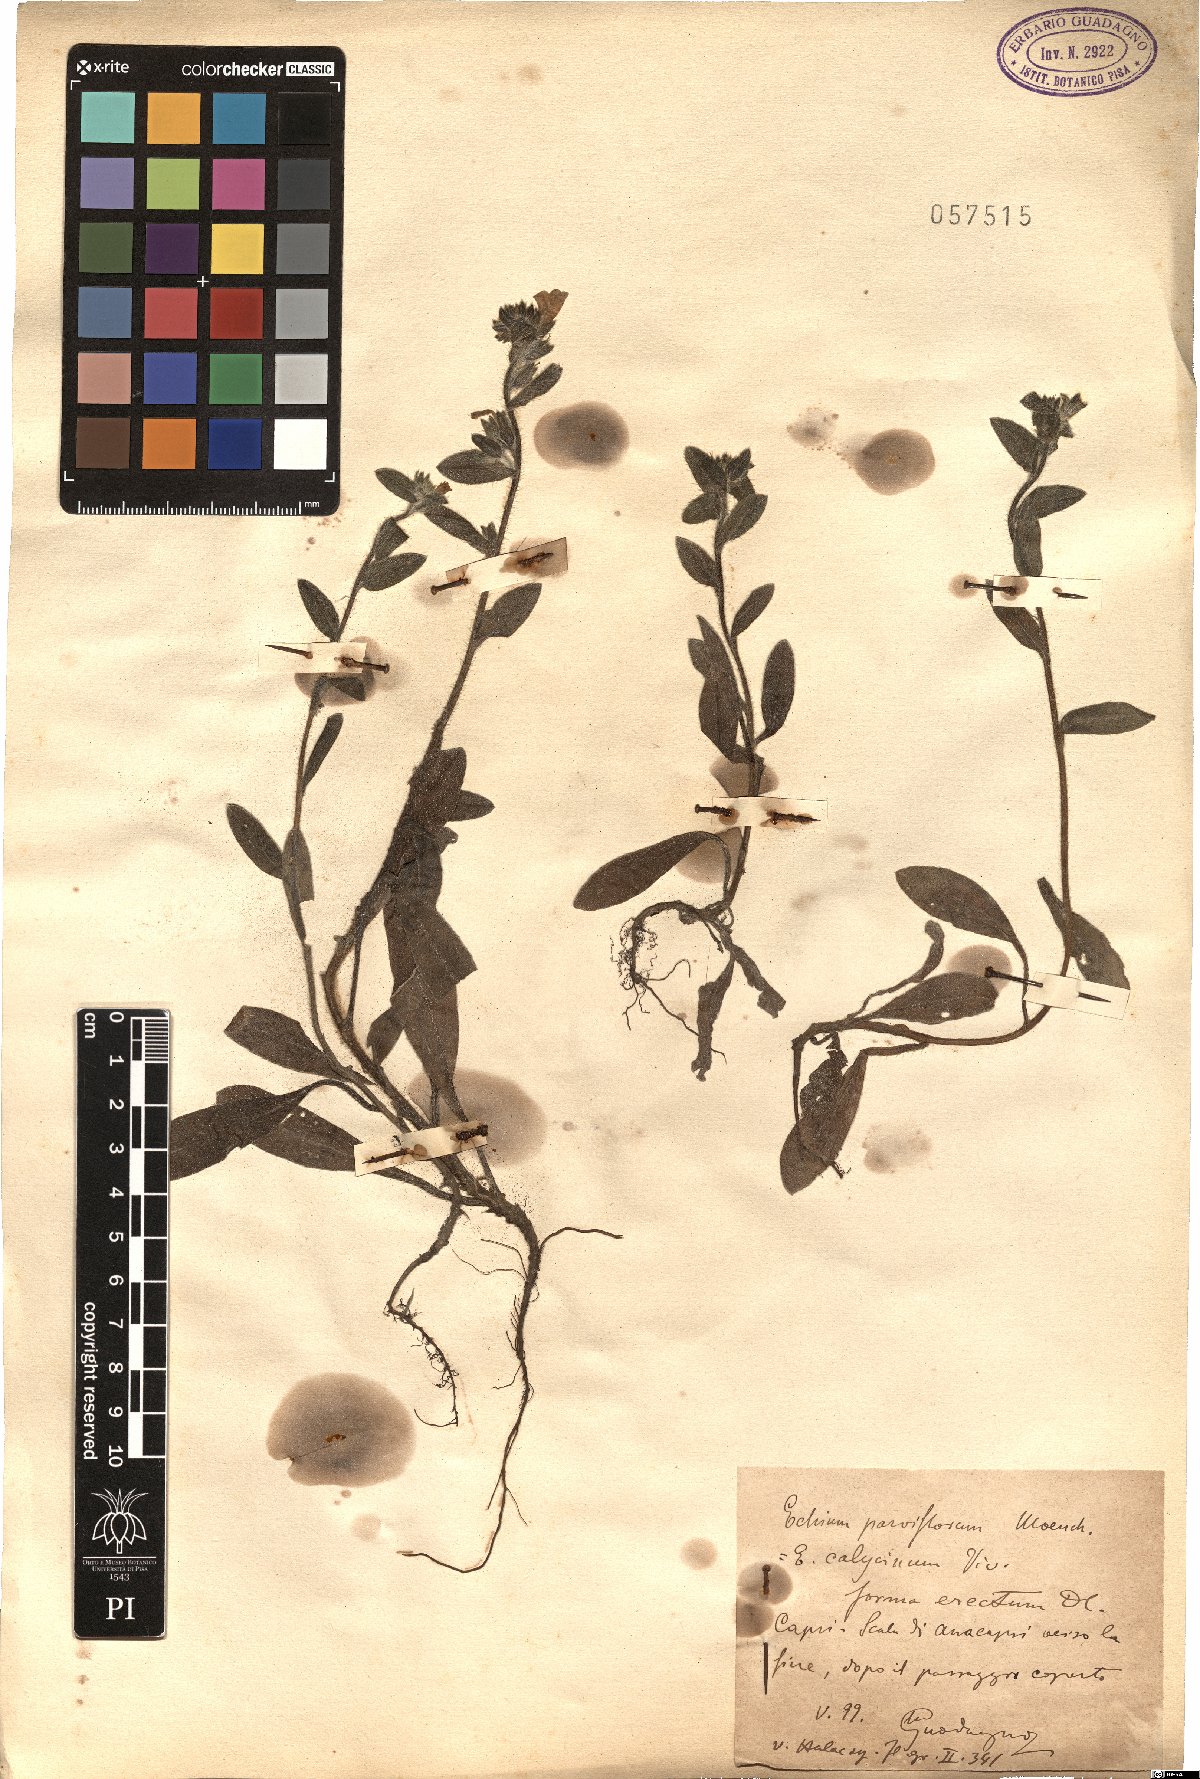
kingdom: Plantae
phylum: Tracheophyta
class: Magnoliopsida
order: Boraginales
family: Boraginaceae
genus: Echium
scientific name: Echium parviflorum
